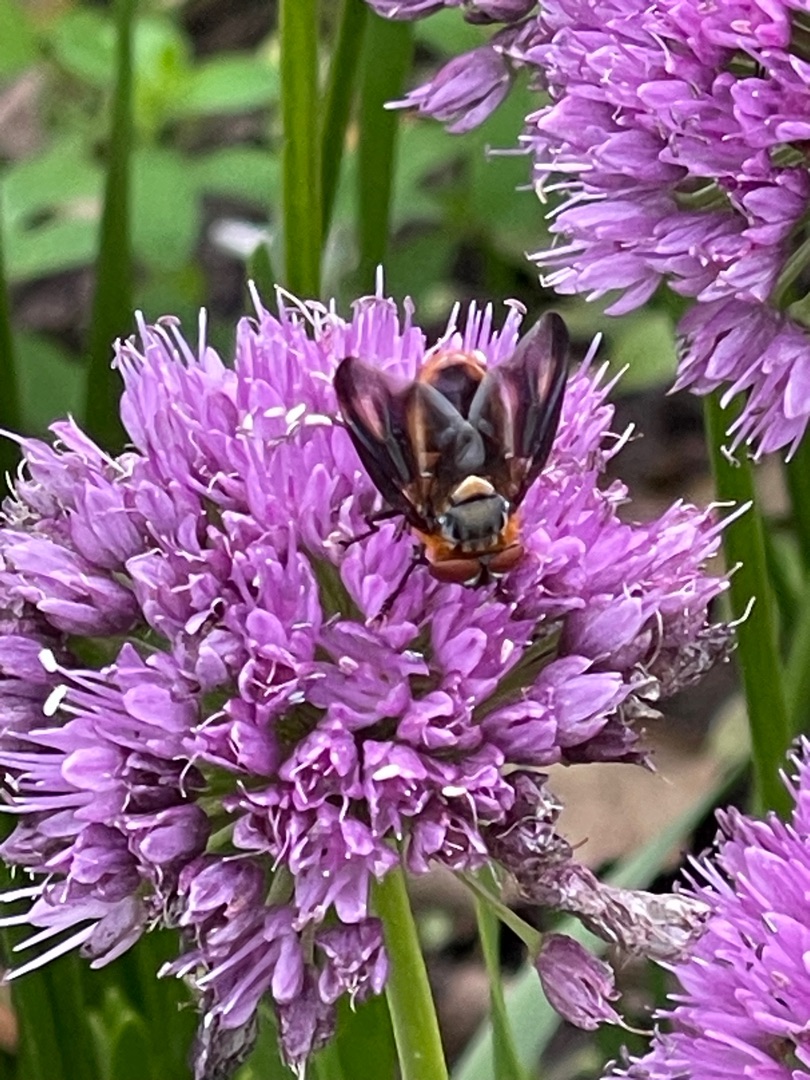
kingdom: Animalia
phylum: Arthropoda
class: Insecta
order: Diptera
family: Tachinidae
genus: Phasia
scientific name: Phasia hemiptera
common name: Blåvinget pragtsnylteflue
